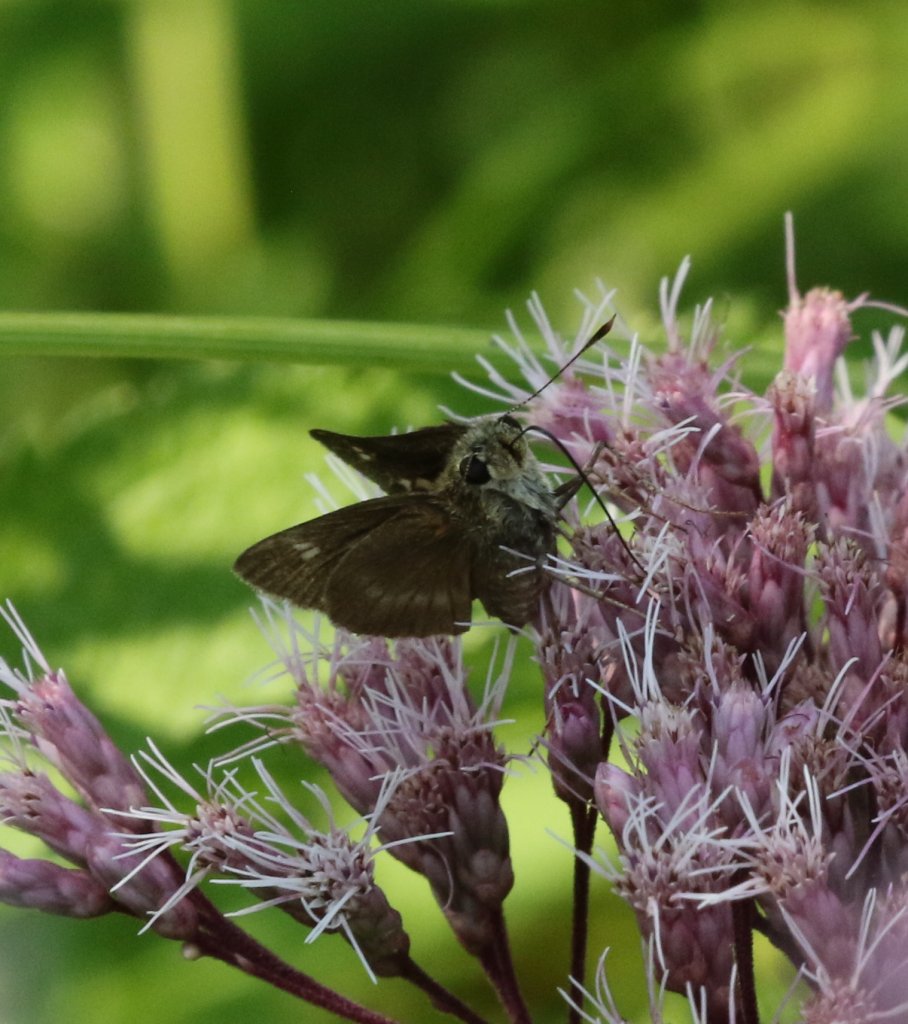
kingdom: Animalia
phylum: Arthropoda
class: Insecta
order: Lepidoptera
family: Hesperiidae
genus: Polites
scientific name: Polites egeremet
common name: Northern Broken-Dash
